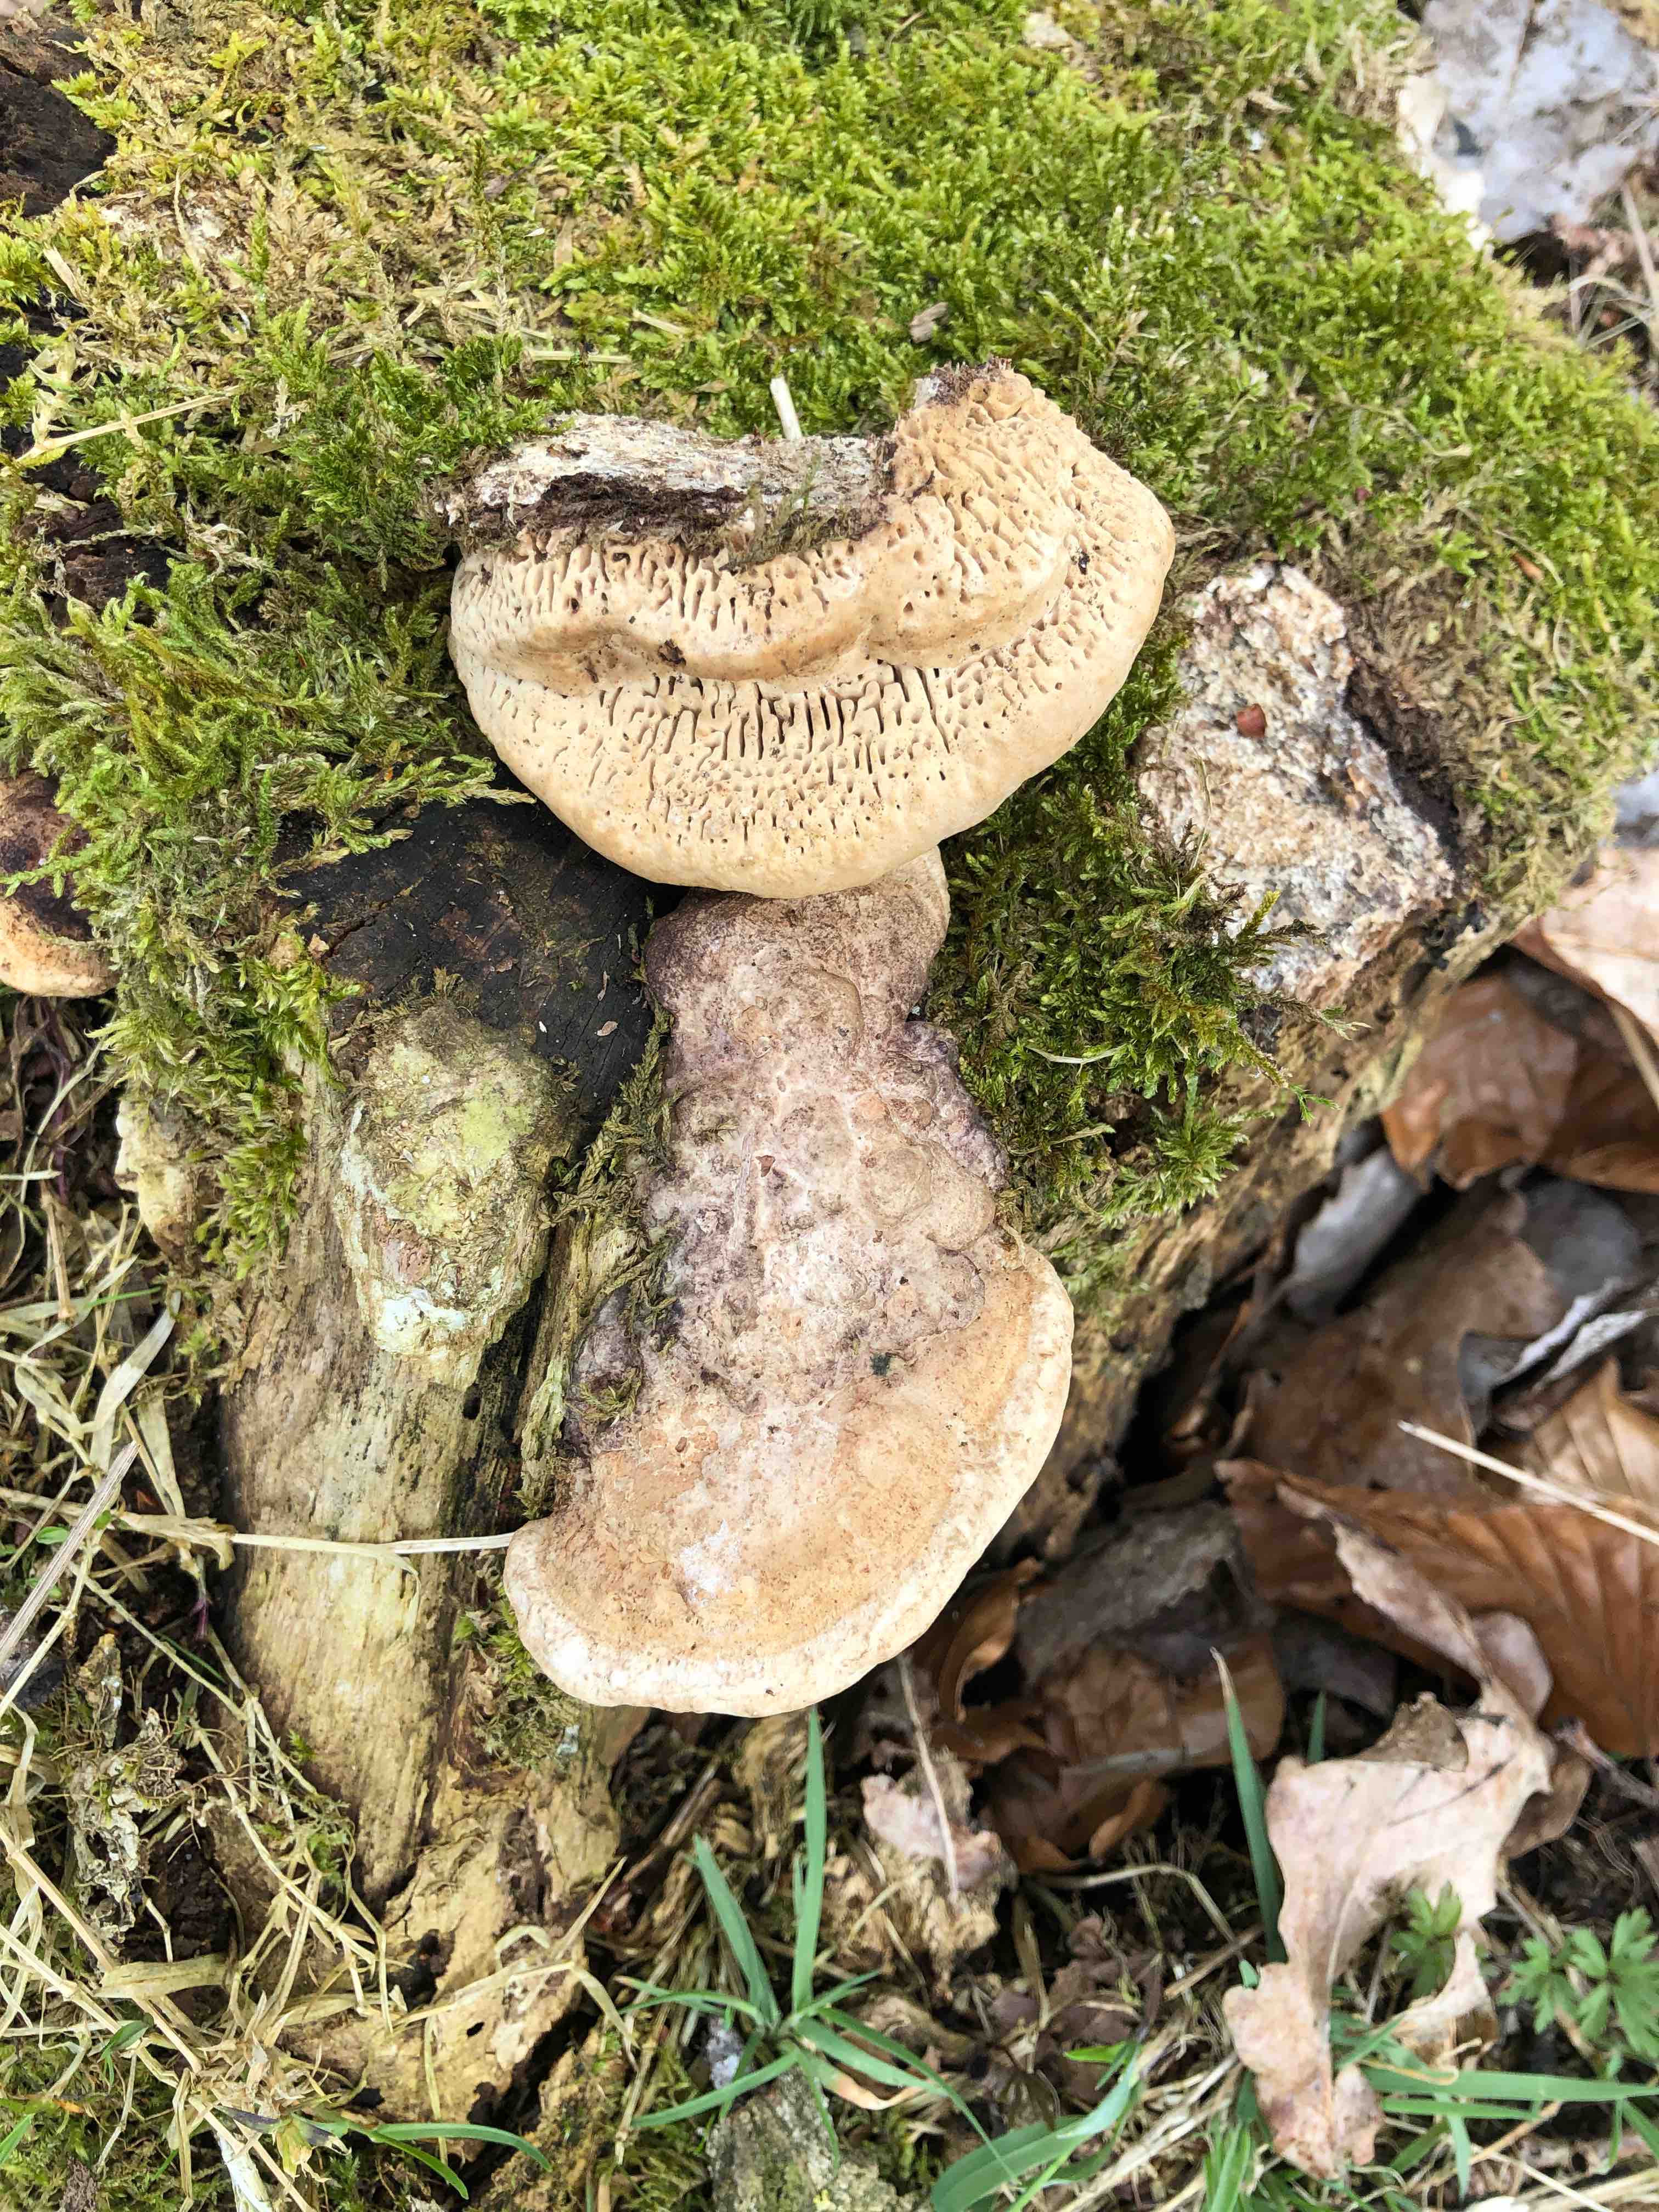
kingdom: Fungi
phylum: Basidiomycota
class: Agaricomycetes
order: Polyporales
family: Fomitopsidaceae
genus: Daedalea
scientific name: Daedalea quercina
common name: ege-labyrintsvamp
